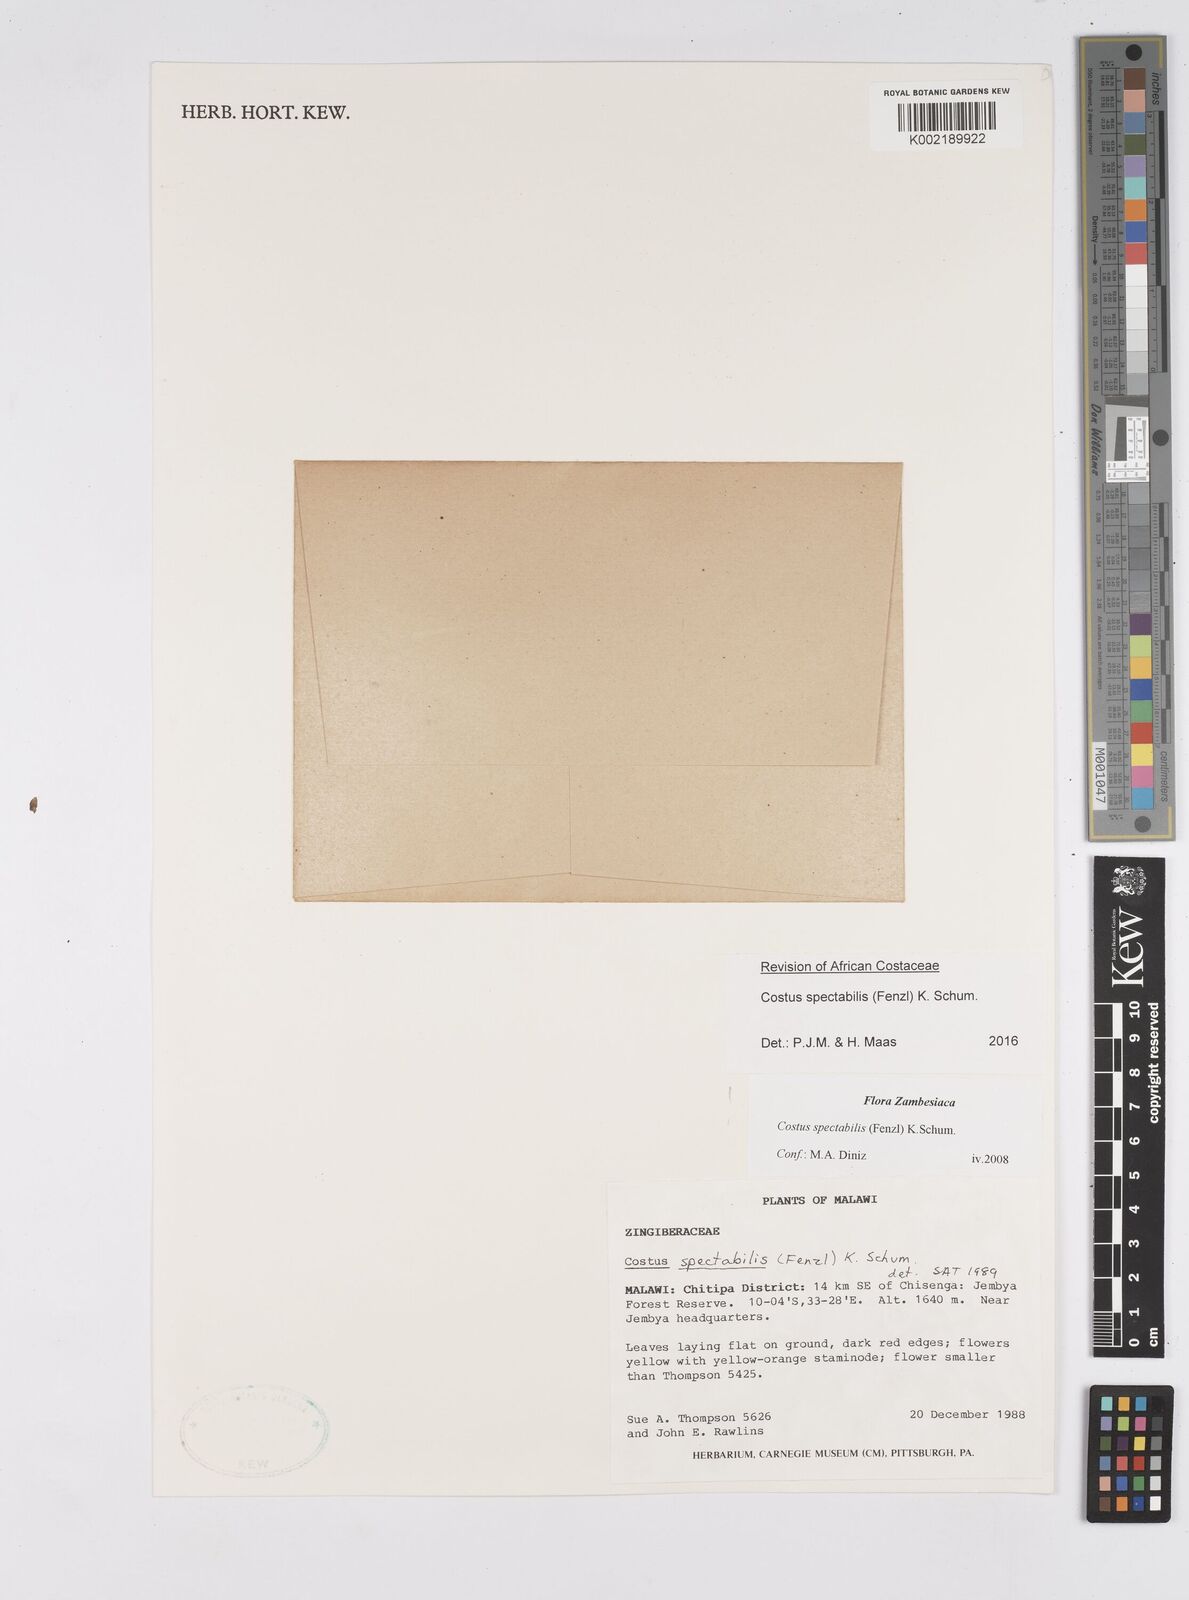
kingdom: Plantae
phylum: Tracheophyta
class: Liliopsida
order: Zingiberales
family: Costaceae
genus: Costus
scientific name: Costus spectabilis
